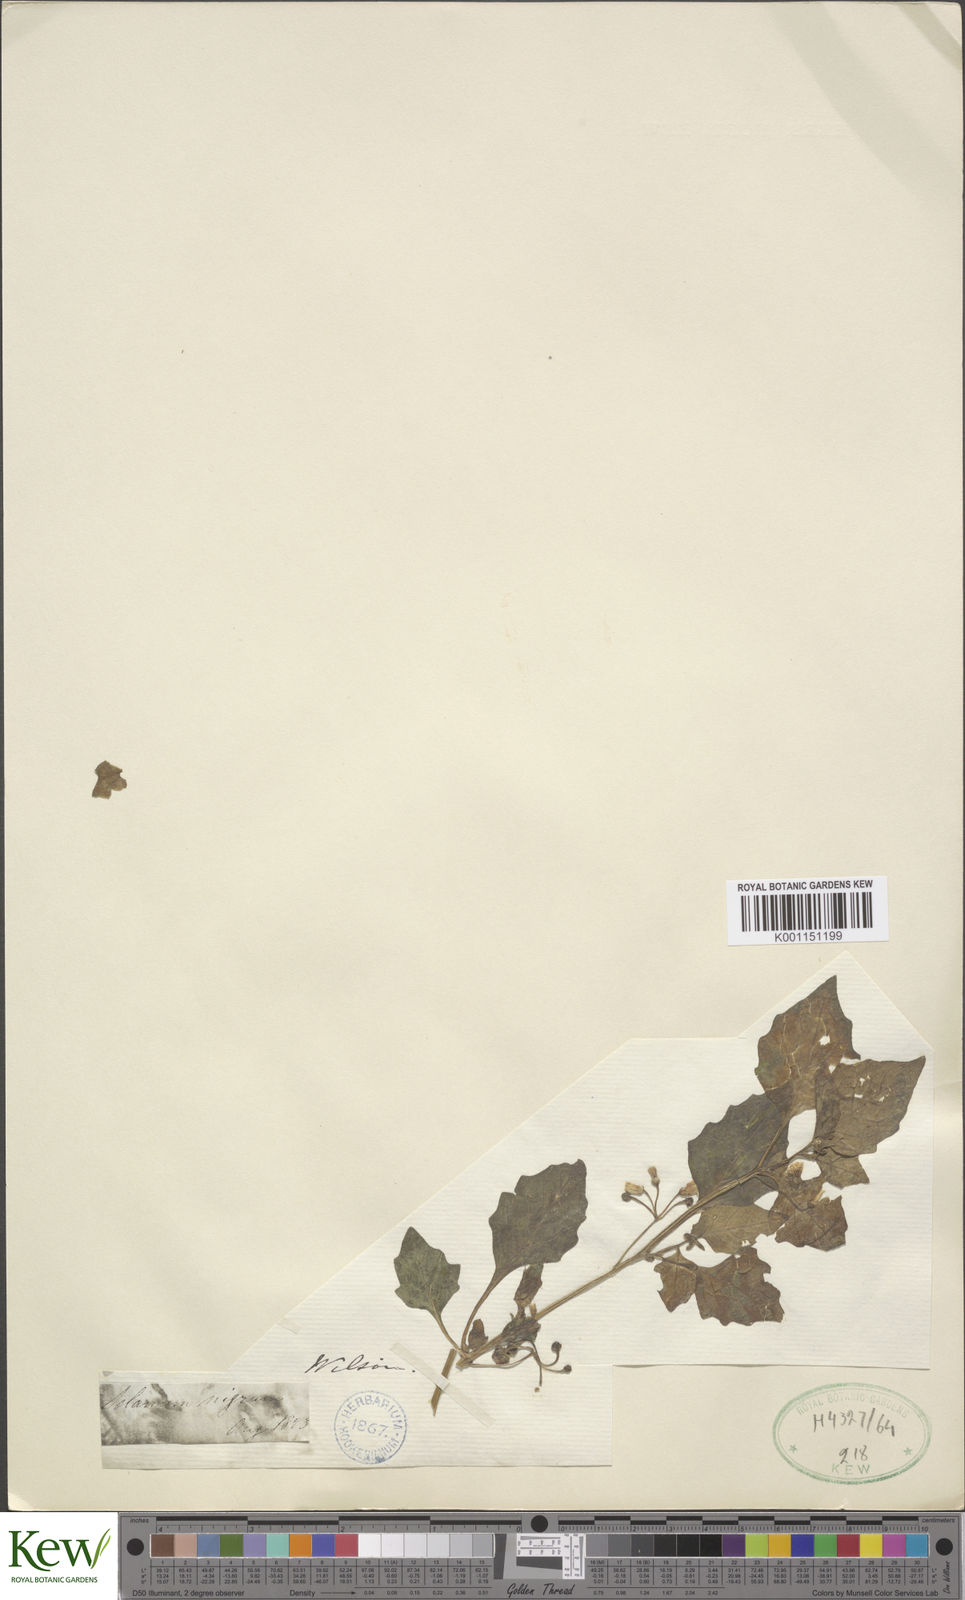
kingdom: Plantae
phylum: Tracheophyta
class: Magnoliopsida
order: Solanales
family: Solanaceae
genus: Solanum
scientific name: Solanum nigrum
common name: Black nightshade
